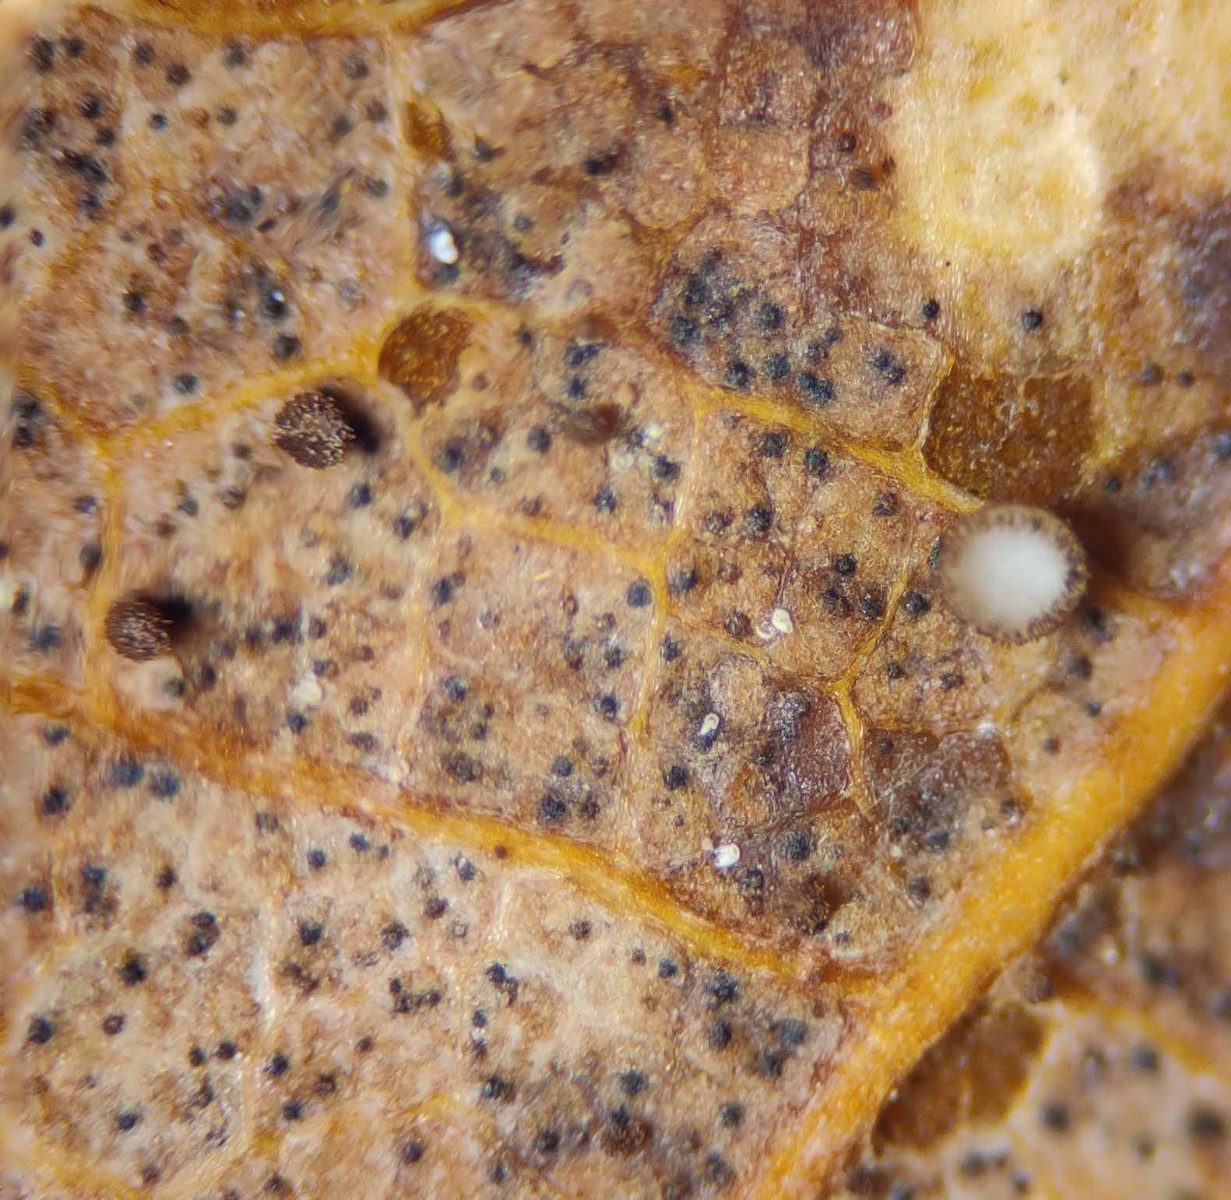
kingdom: Fungi
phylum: Ascomycota
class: Leotiomycetes
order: Helotiales
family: Lachnaceae
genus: Brunnipila
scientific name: Brunnipila brunneola
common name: læderbrun frynseskive
